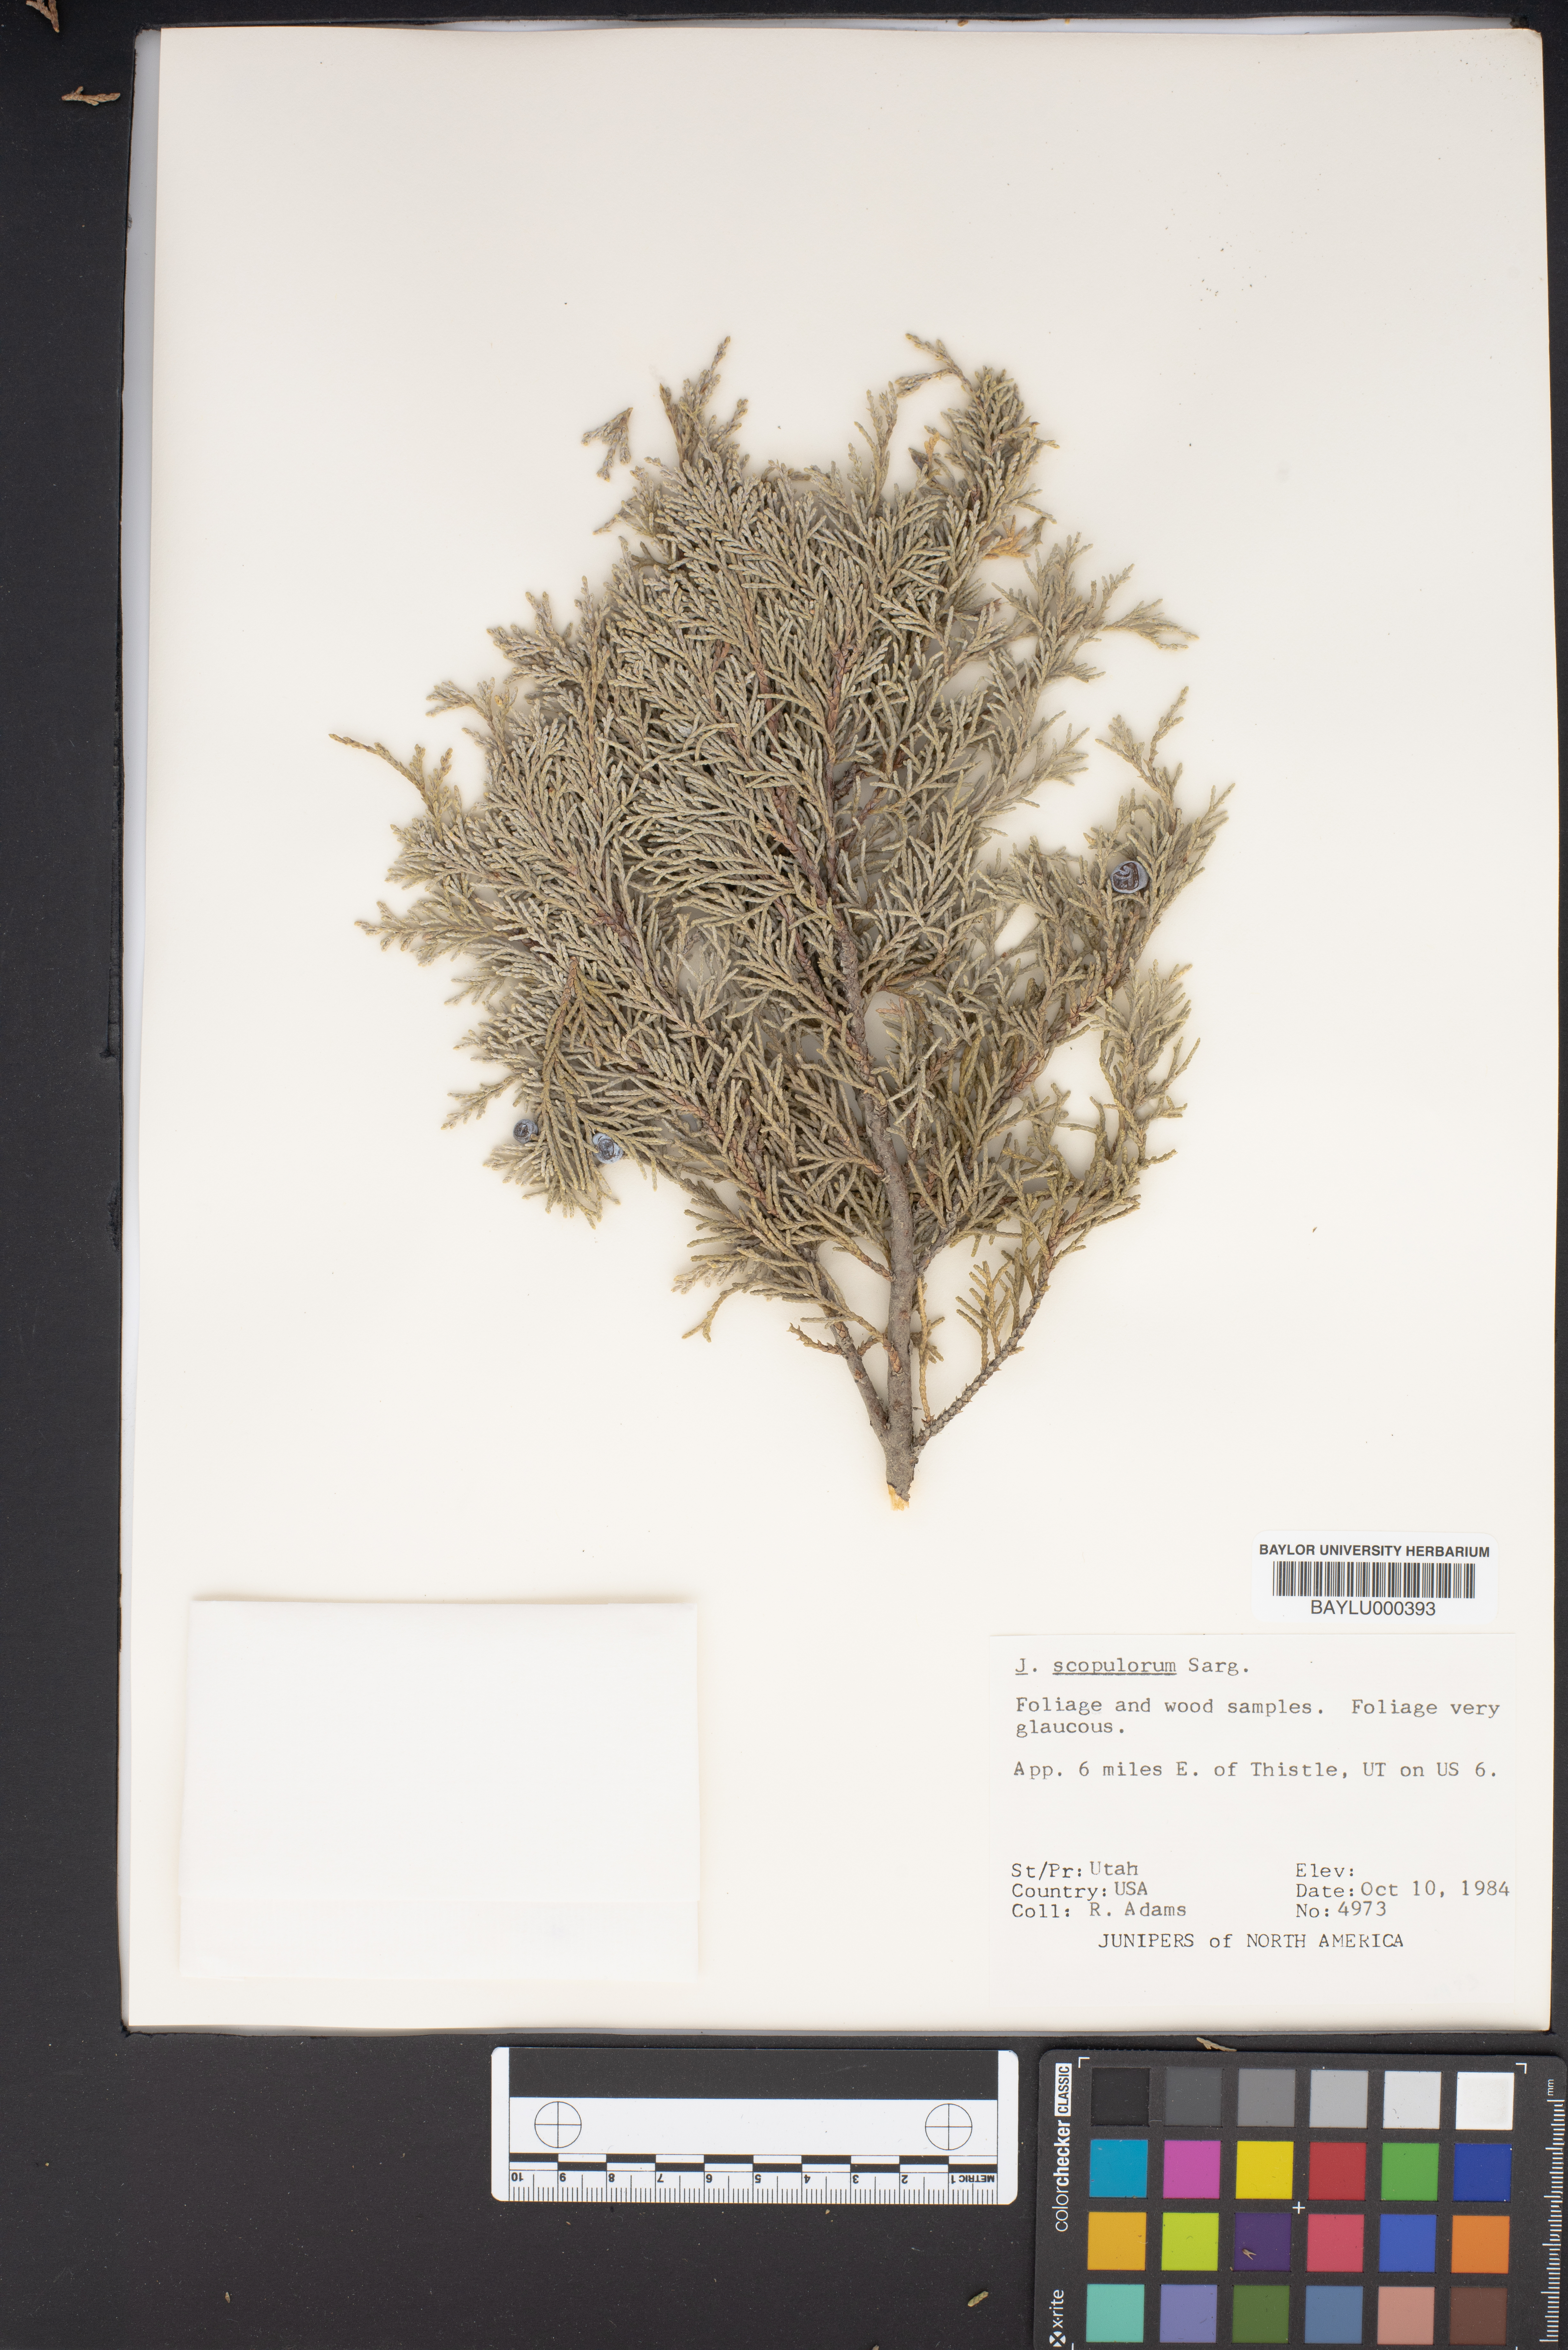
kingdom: Plantae
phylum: Tracheophyta
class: Pinopsida
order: Pinales
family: Cupressaceae
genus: Juniperus
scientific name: Juniperus scopulorum
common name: Rocky mountain juniper
